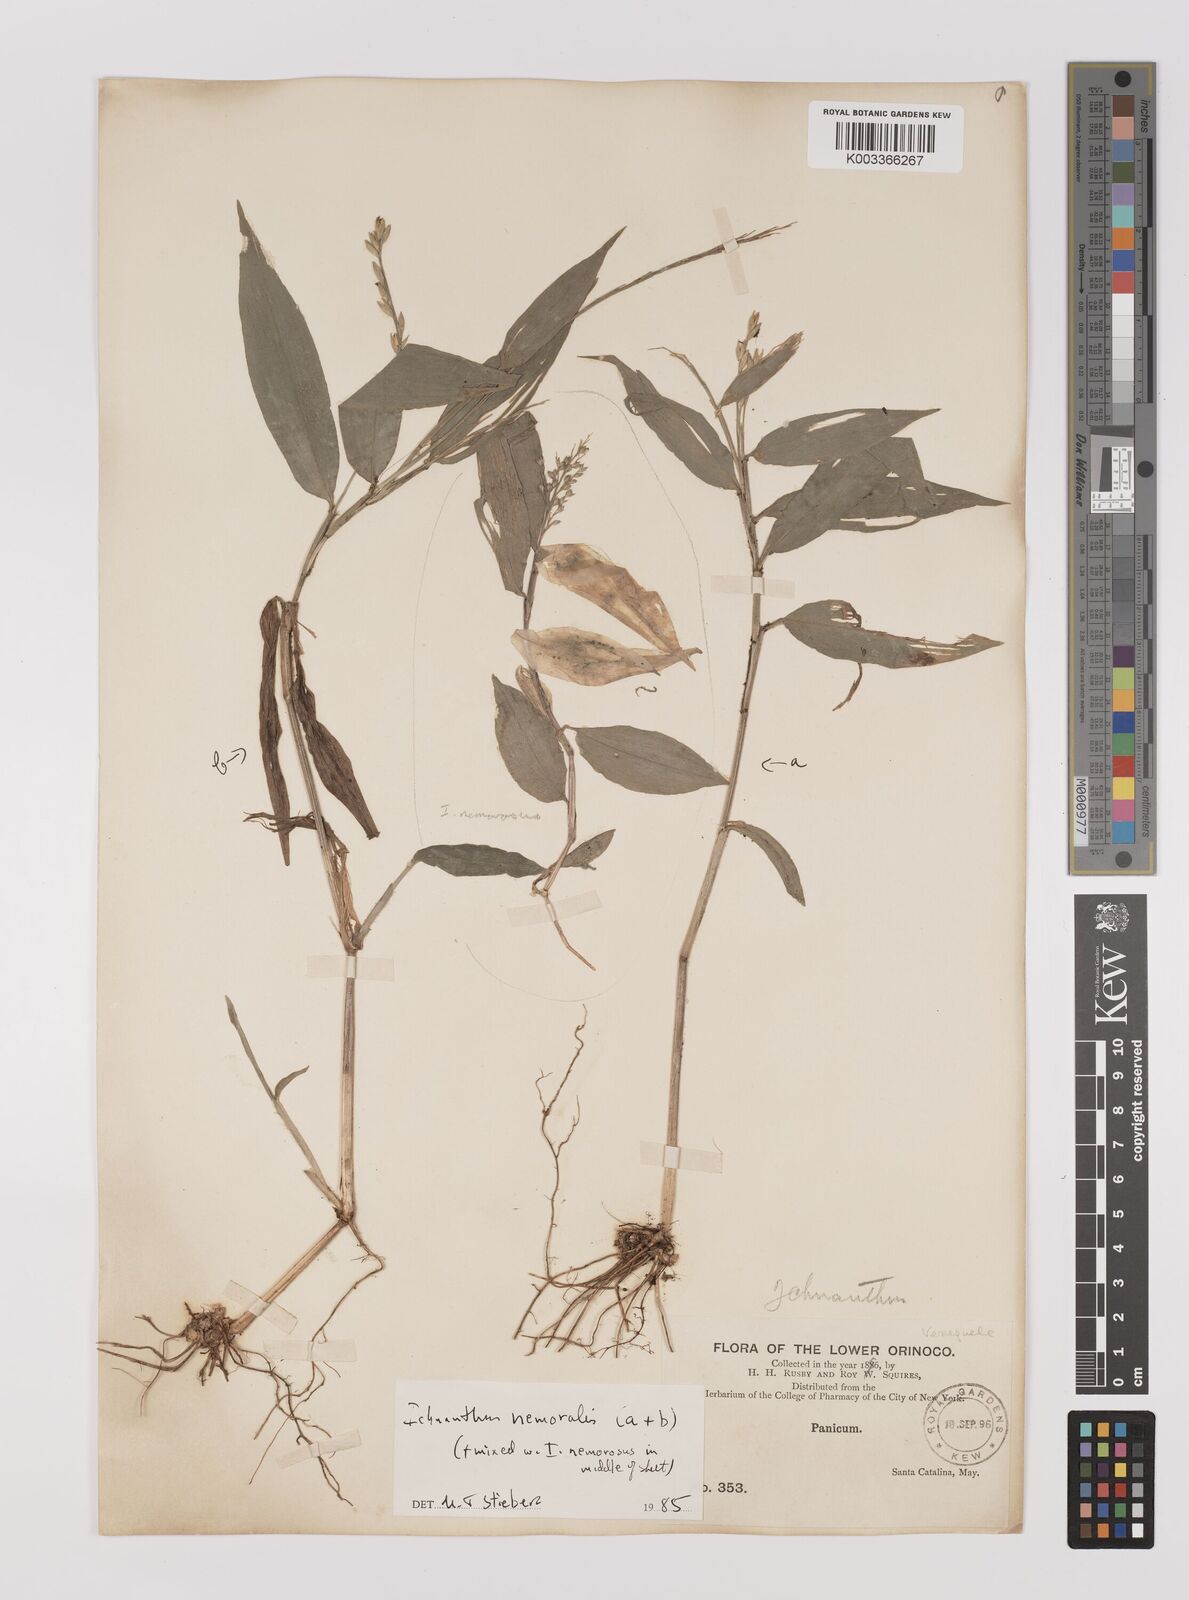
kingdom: Plantae
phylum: Tracheophyta
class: Liliopsida
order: Poales
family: Poaceae
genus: Ichnanthus
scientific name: Ichnanthus nemoralis
